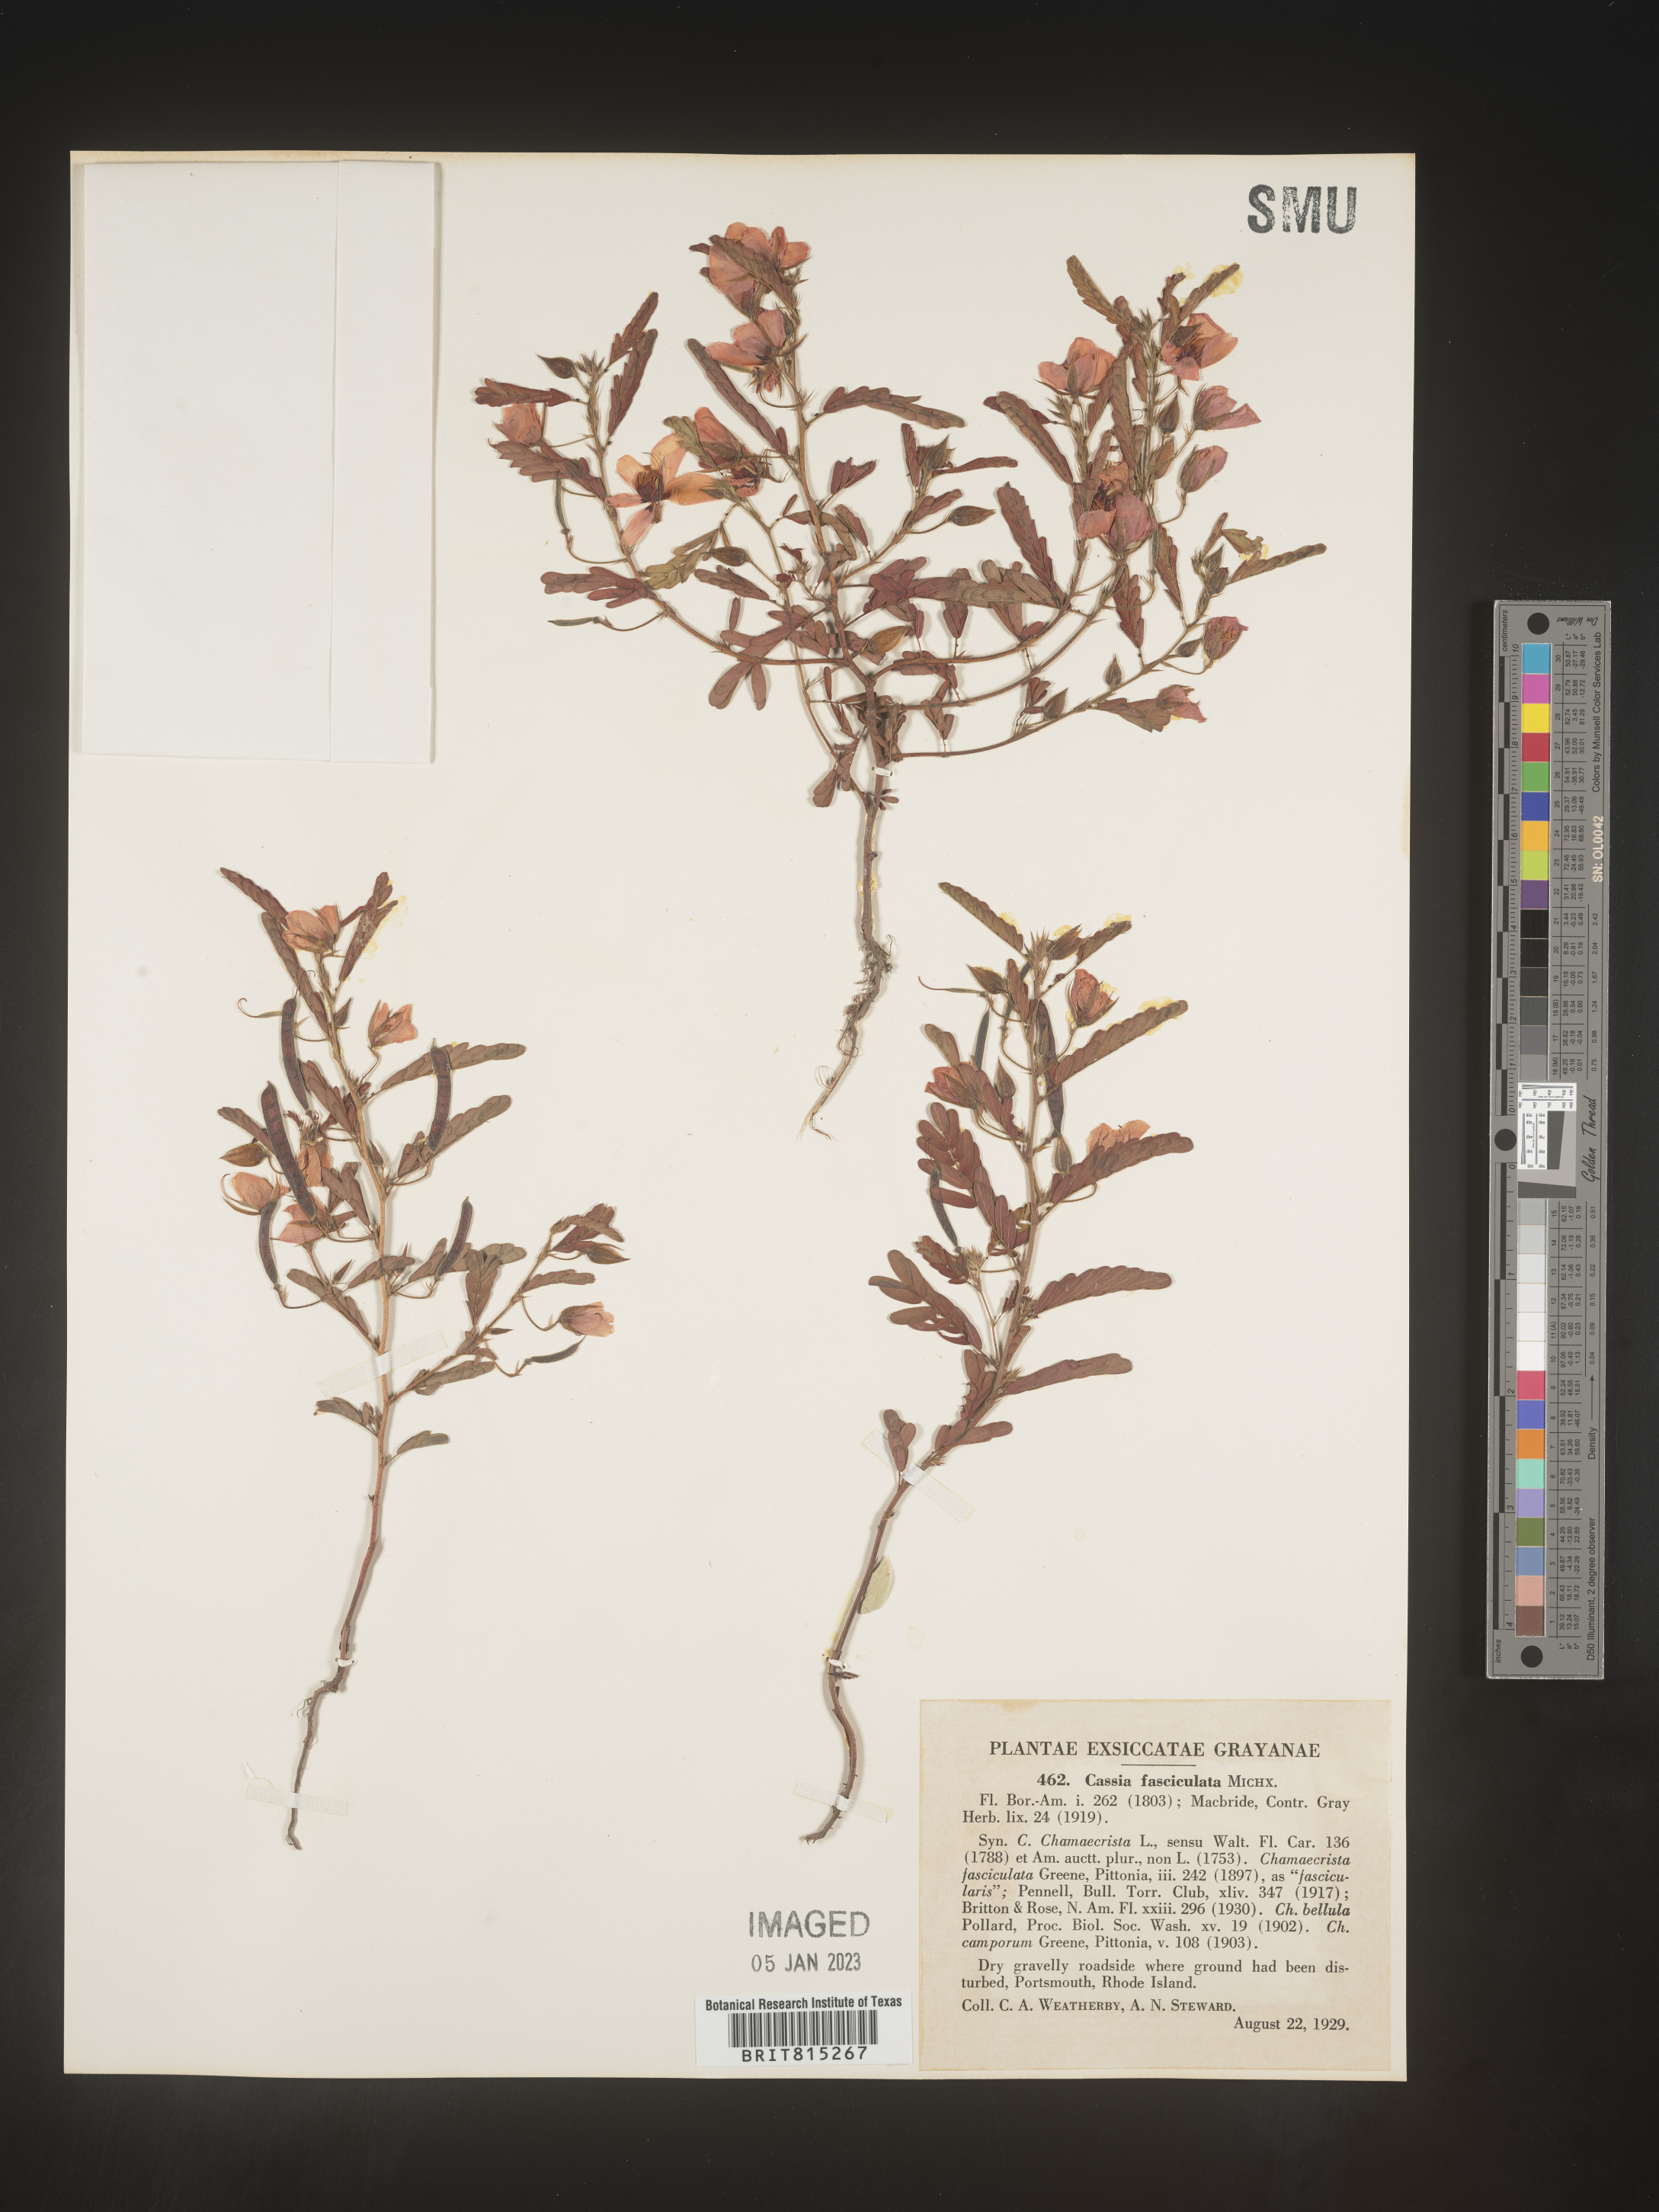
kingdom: Plantae
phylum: Tracheophyta
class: Magnoliopsida
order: Fabales
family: Fabaceae
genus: Chamaecrista
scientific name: Chamaecrista fasciculata
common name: Golden cassia
